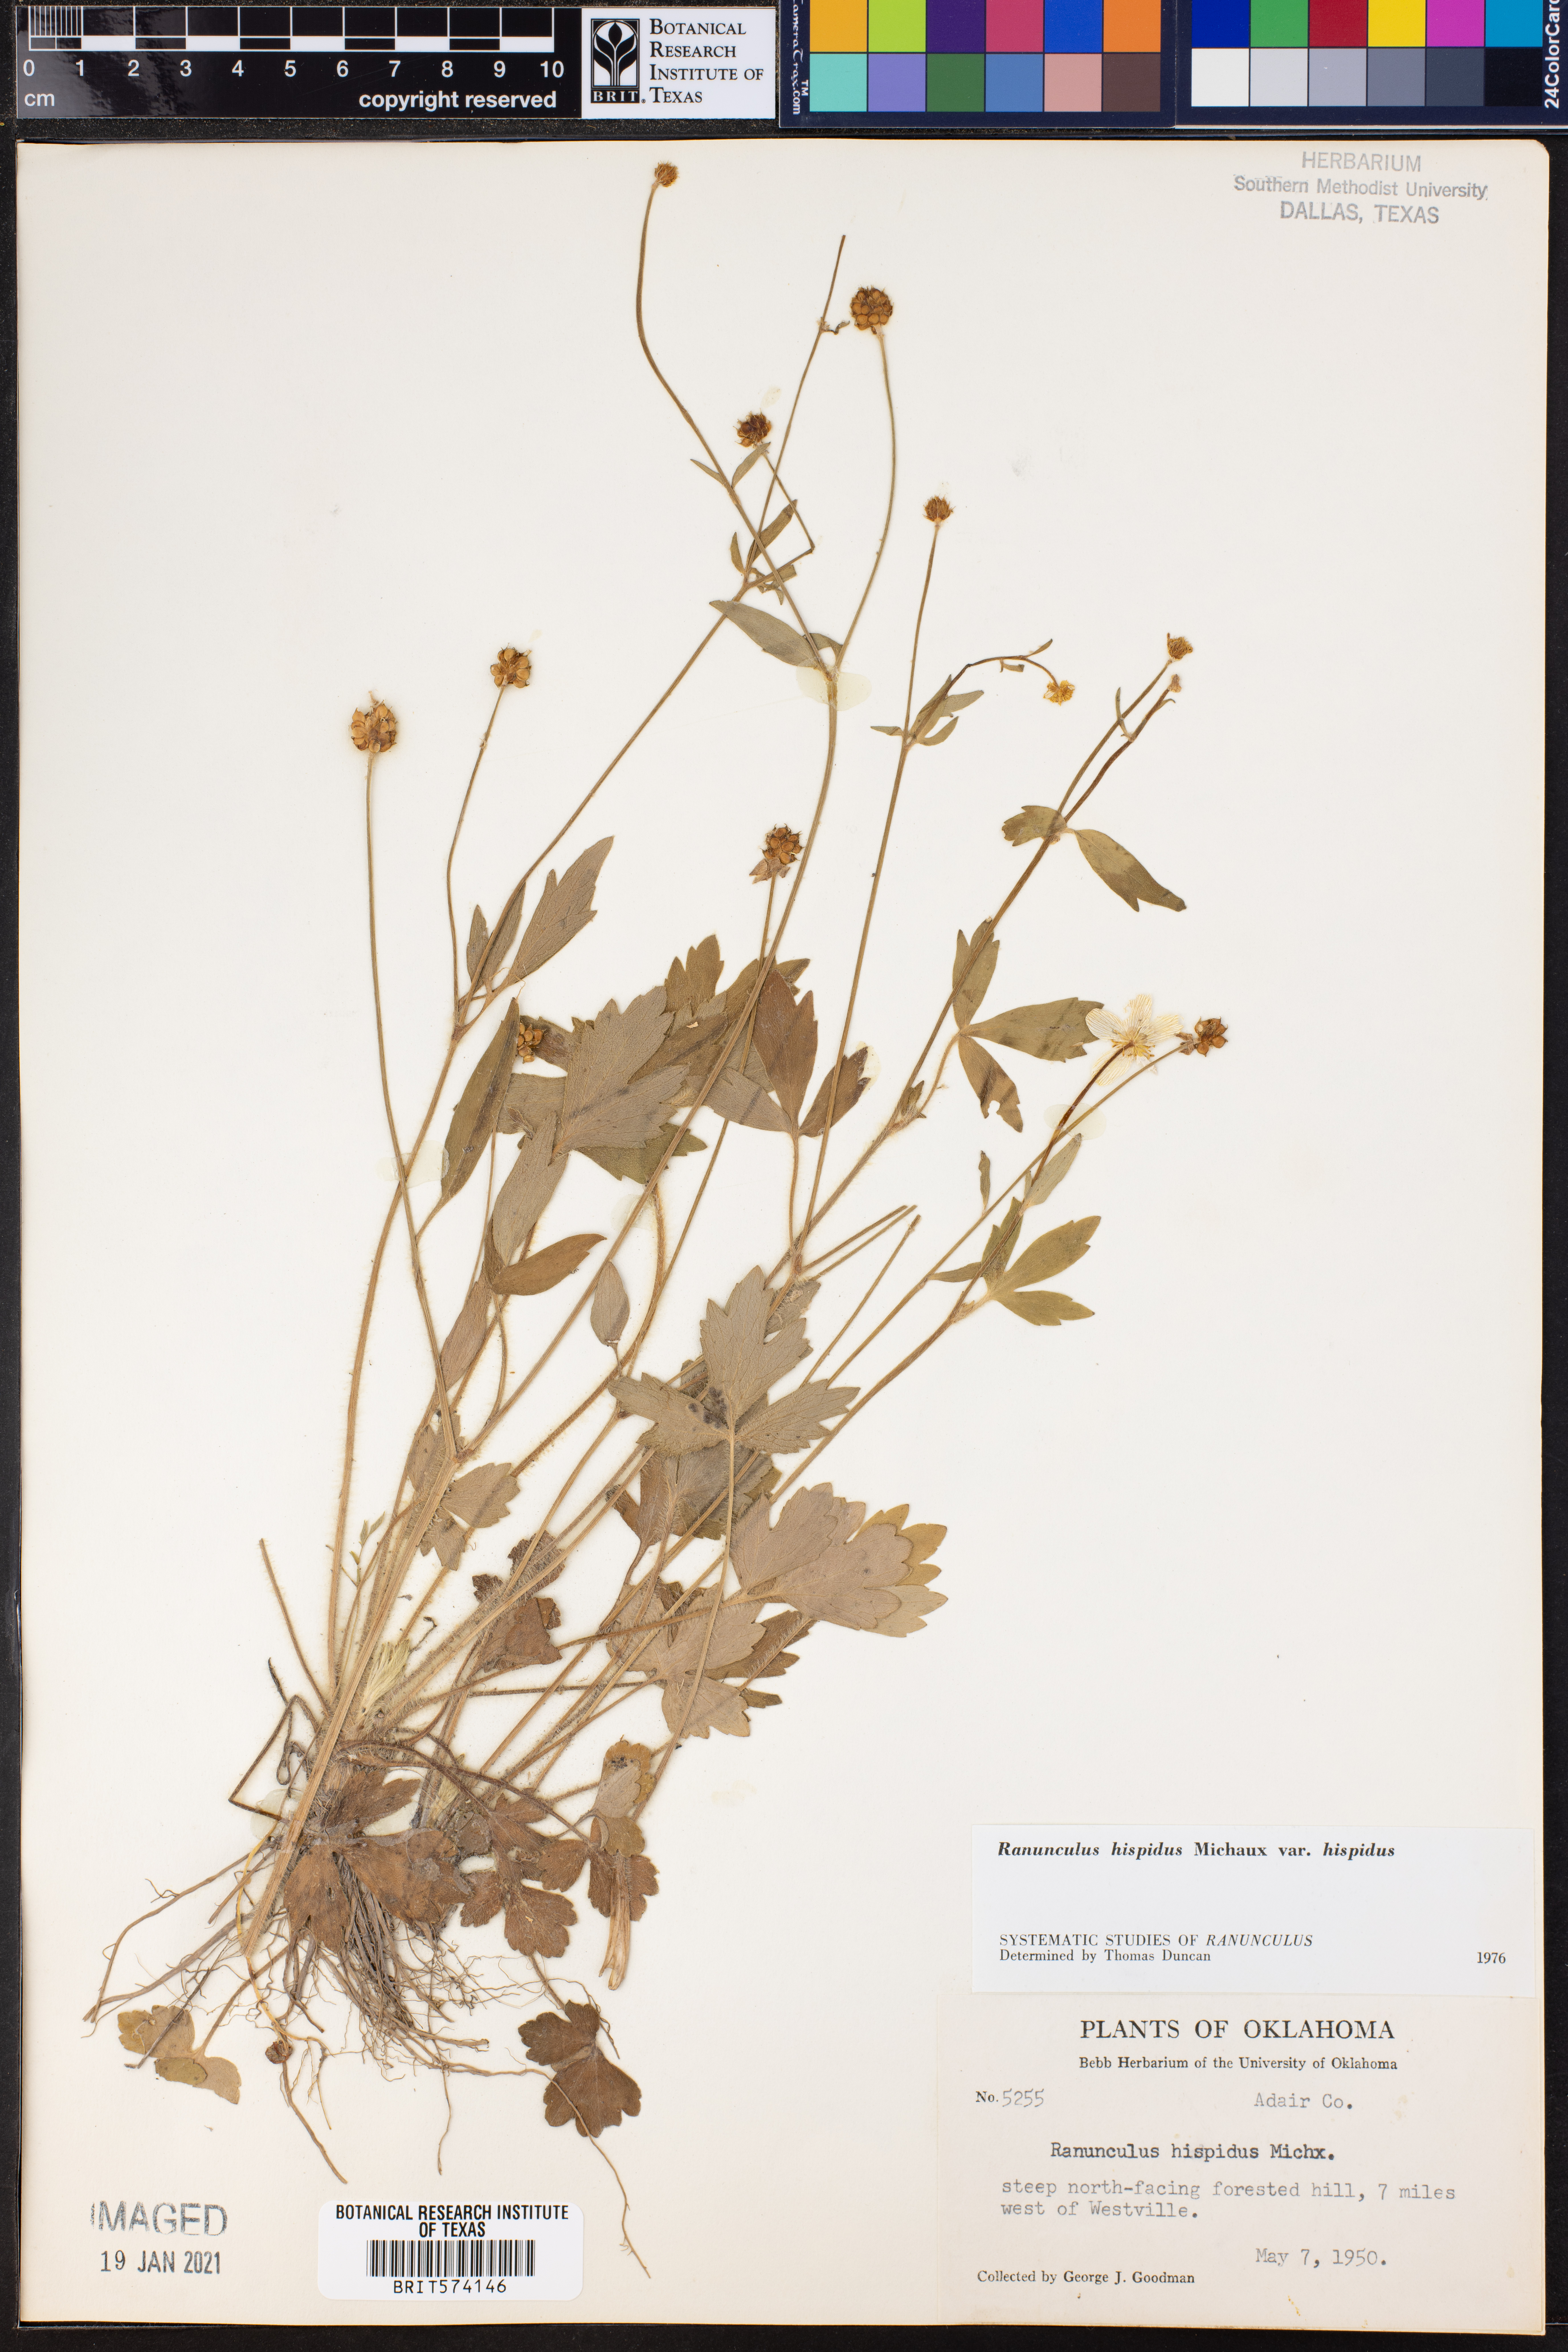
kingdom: Plantae
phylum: Tracheophyta
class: Magnoliopsida
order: Ranunculales
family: Ranunculaceae
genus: Ranunculus
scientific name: Ranunculus hispidus
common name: Bristly buttercup
